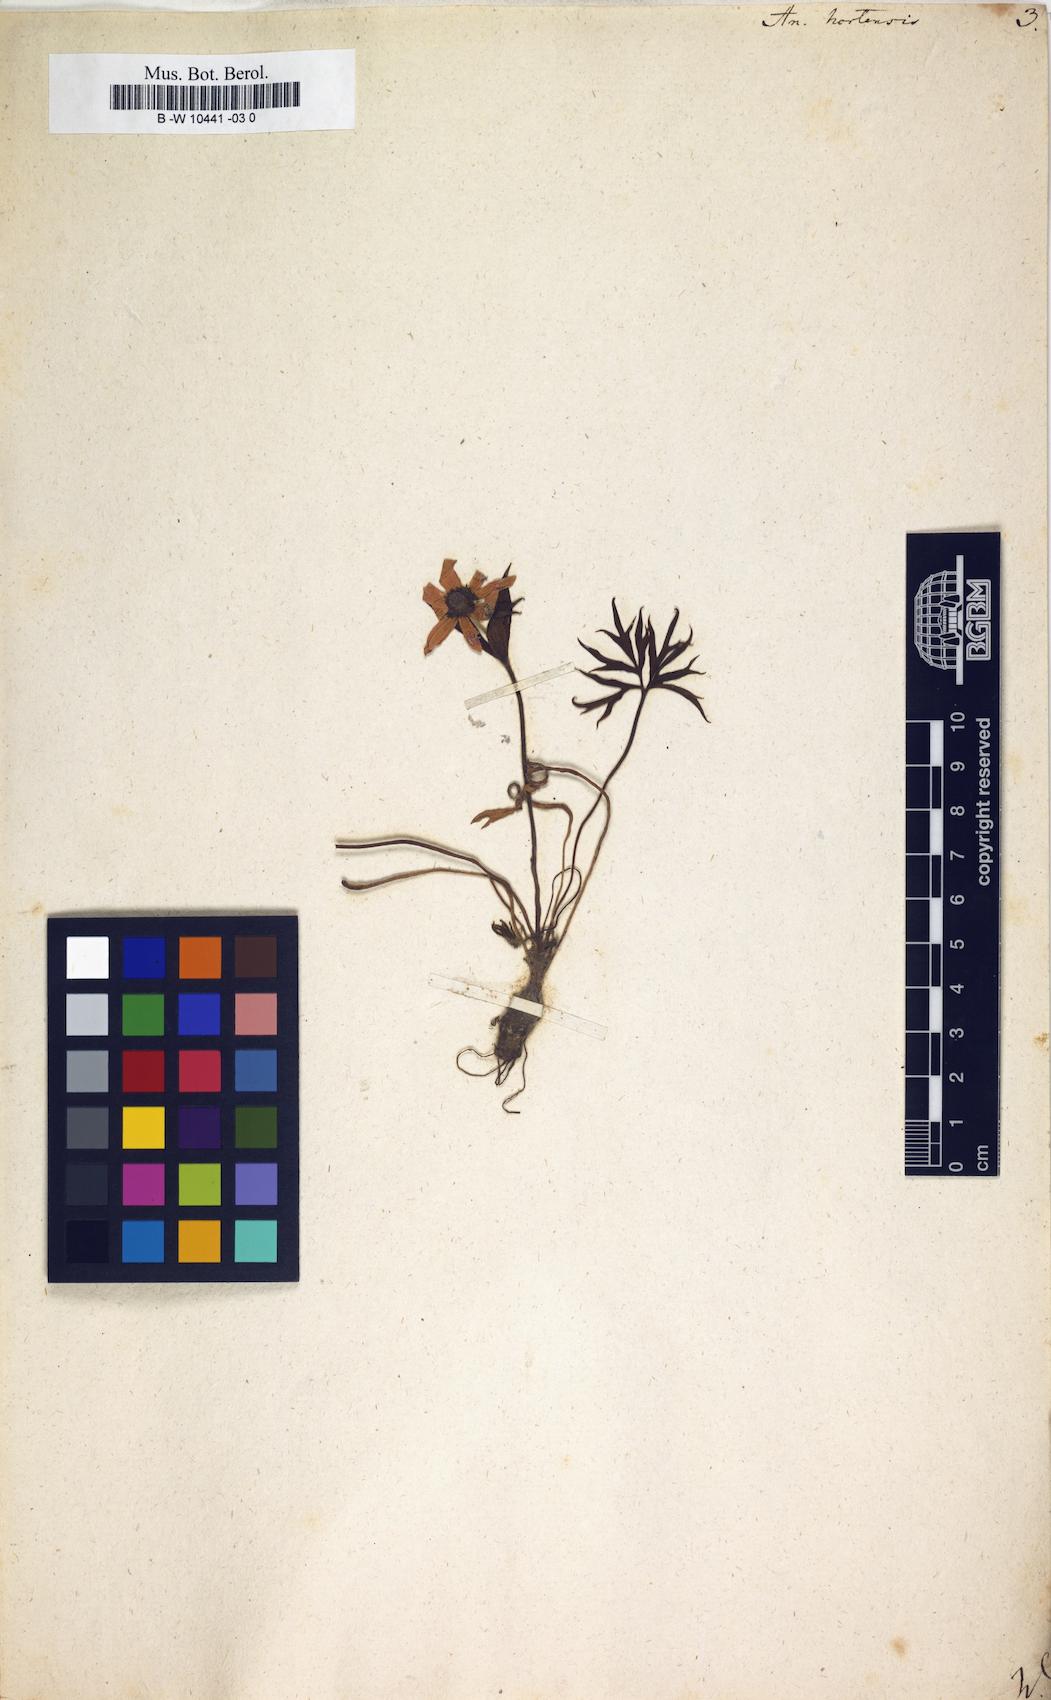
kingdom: Plantae
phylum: Tracheophyta
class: Magnoliopsida
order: Ranunculales
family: Ranunculaceae
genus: Anemone
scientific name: Anemone hortensis
